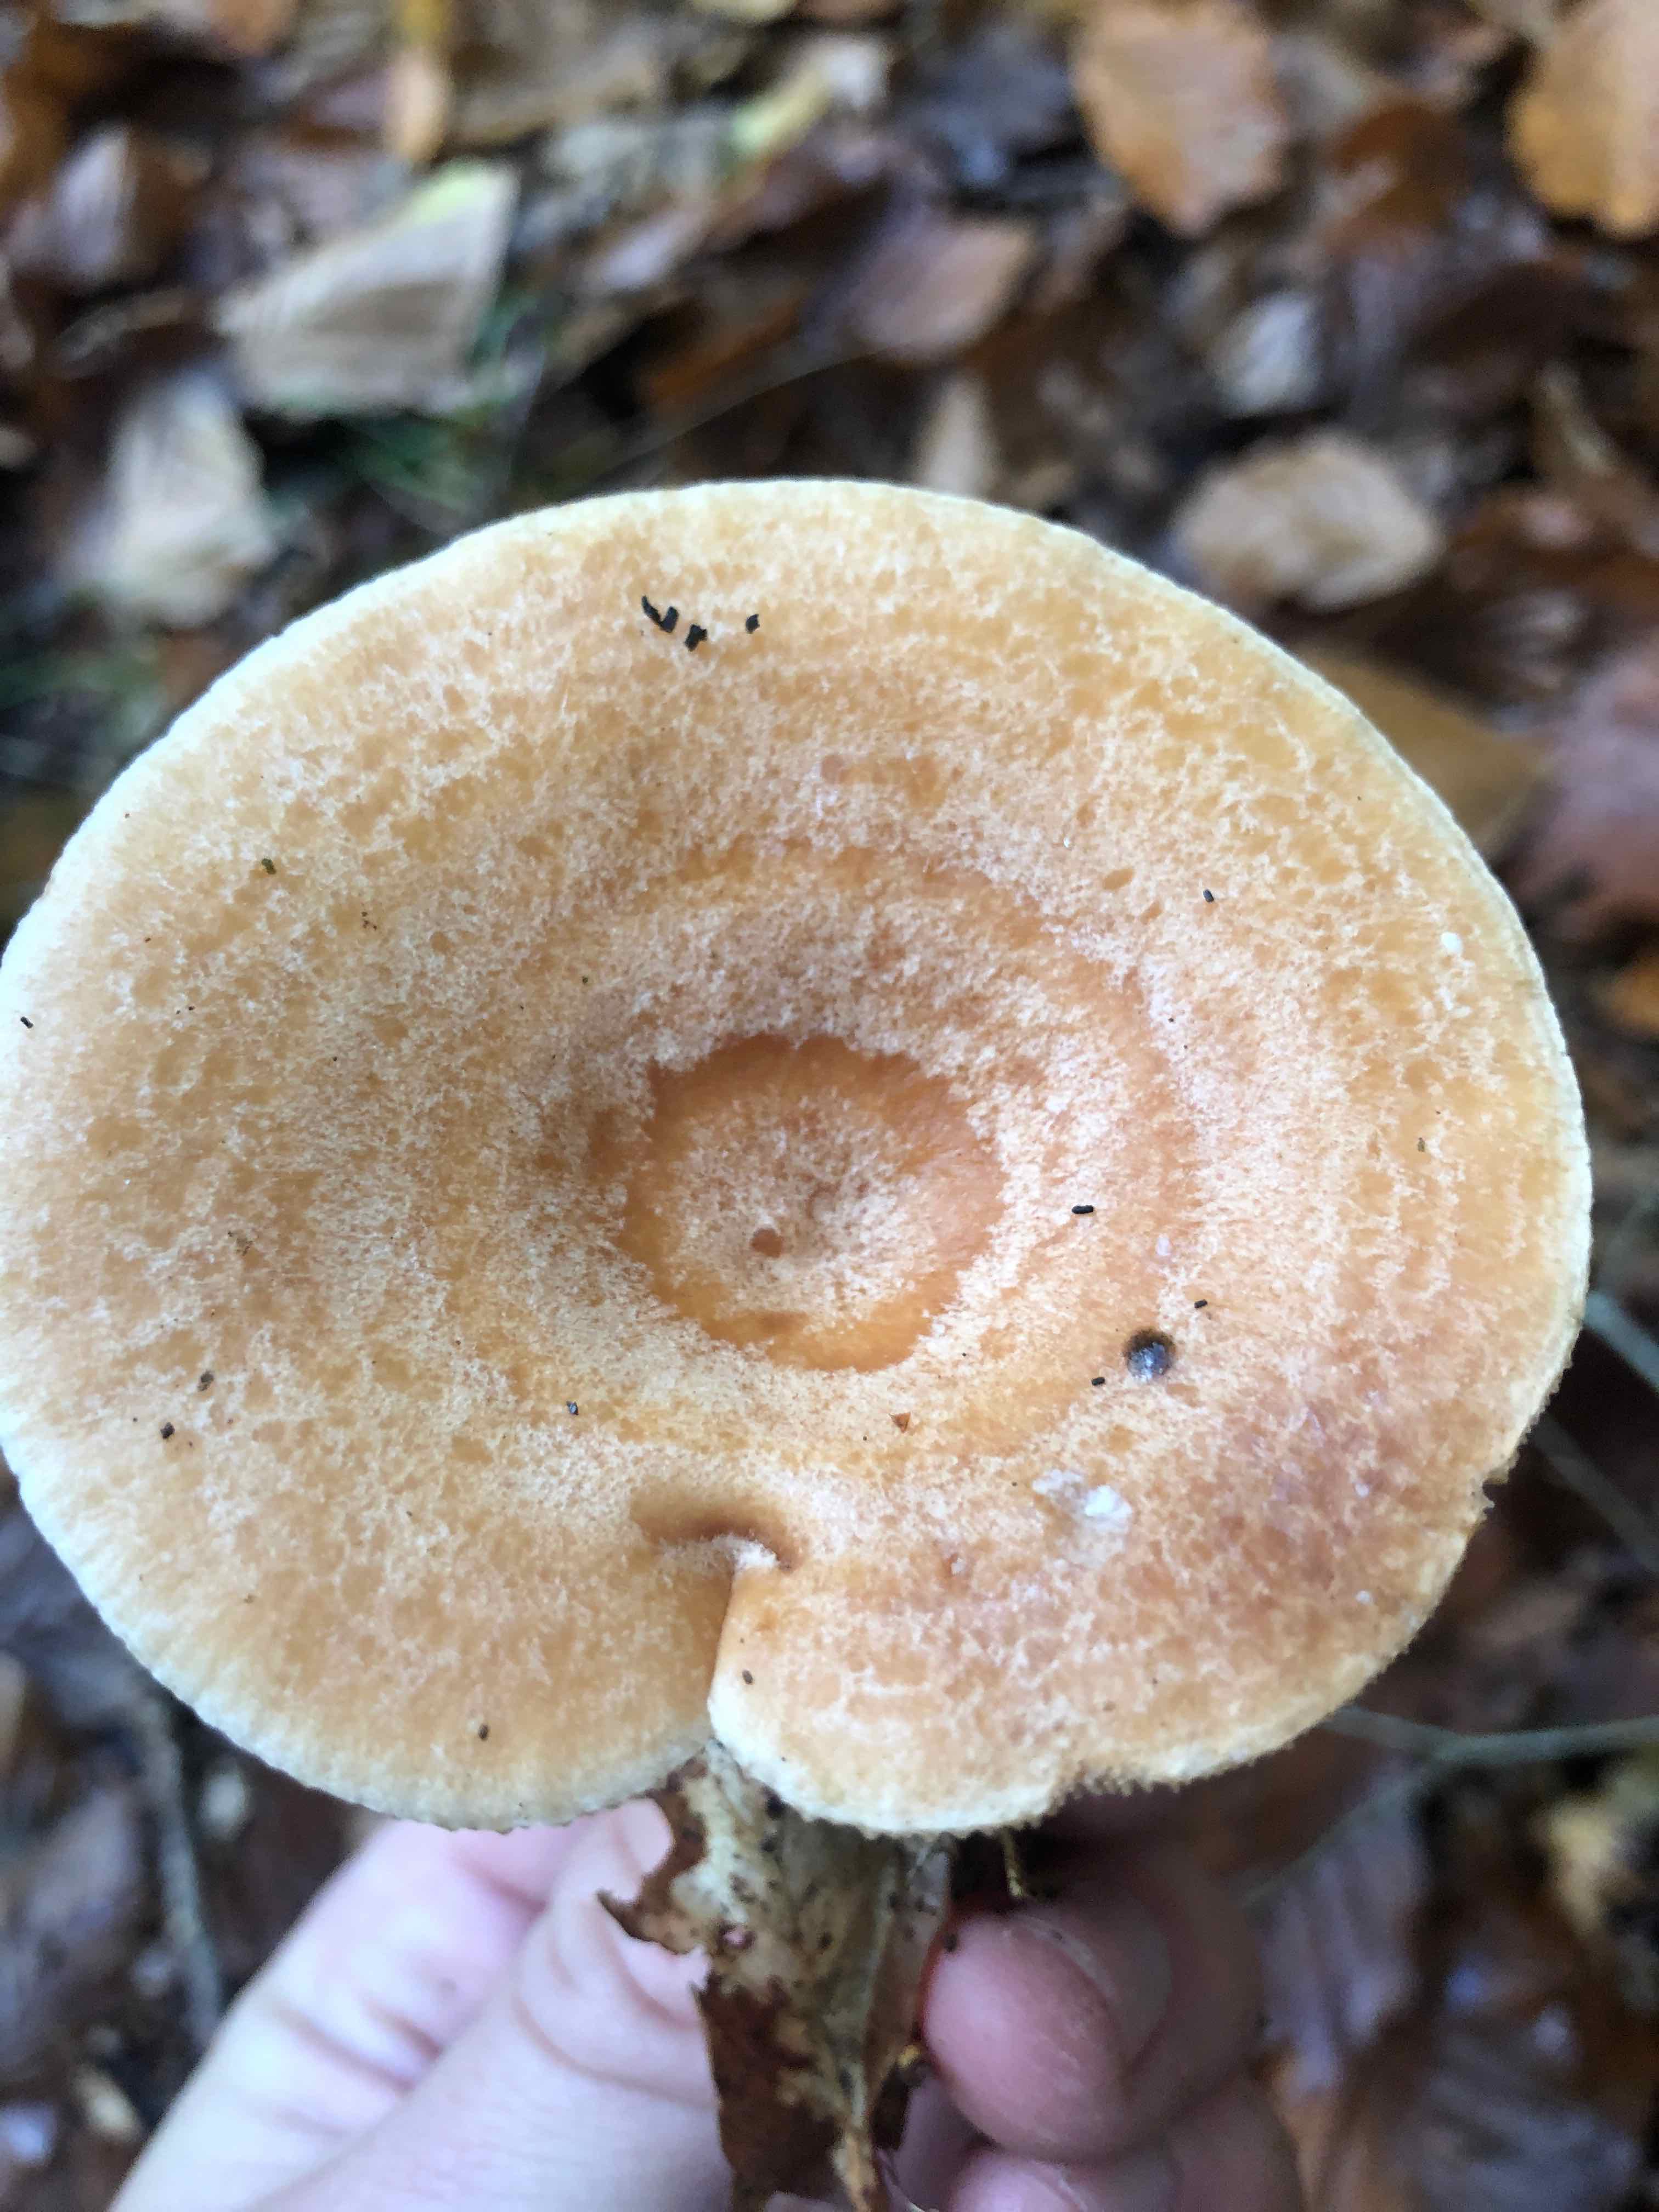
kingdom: Fungi
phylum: Basidiomycota
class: Agaricomycetes
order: Russulales
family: Russulaceae
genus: Lactarius
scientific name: Lactarius chrysorrheus
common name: svovlmælket mælkehat
